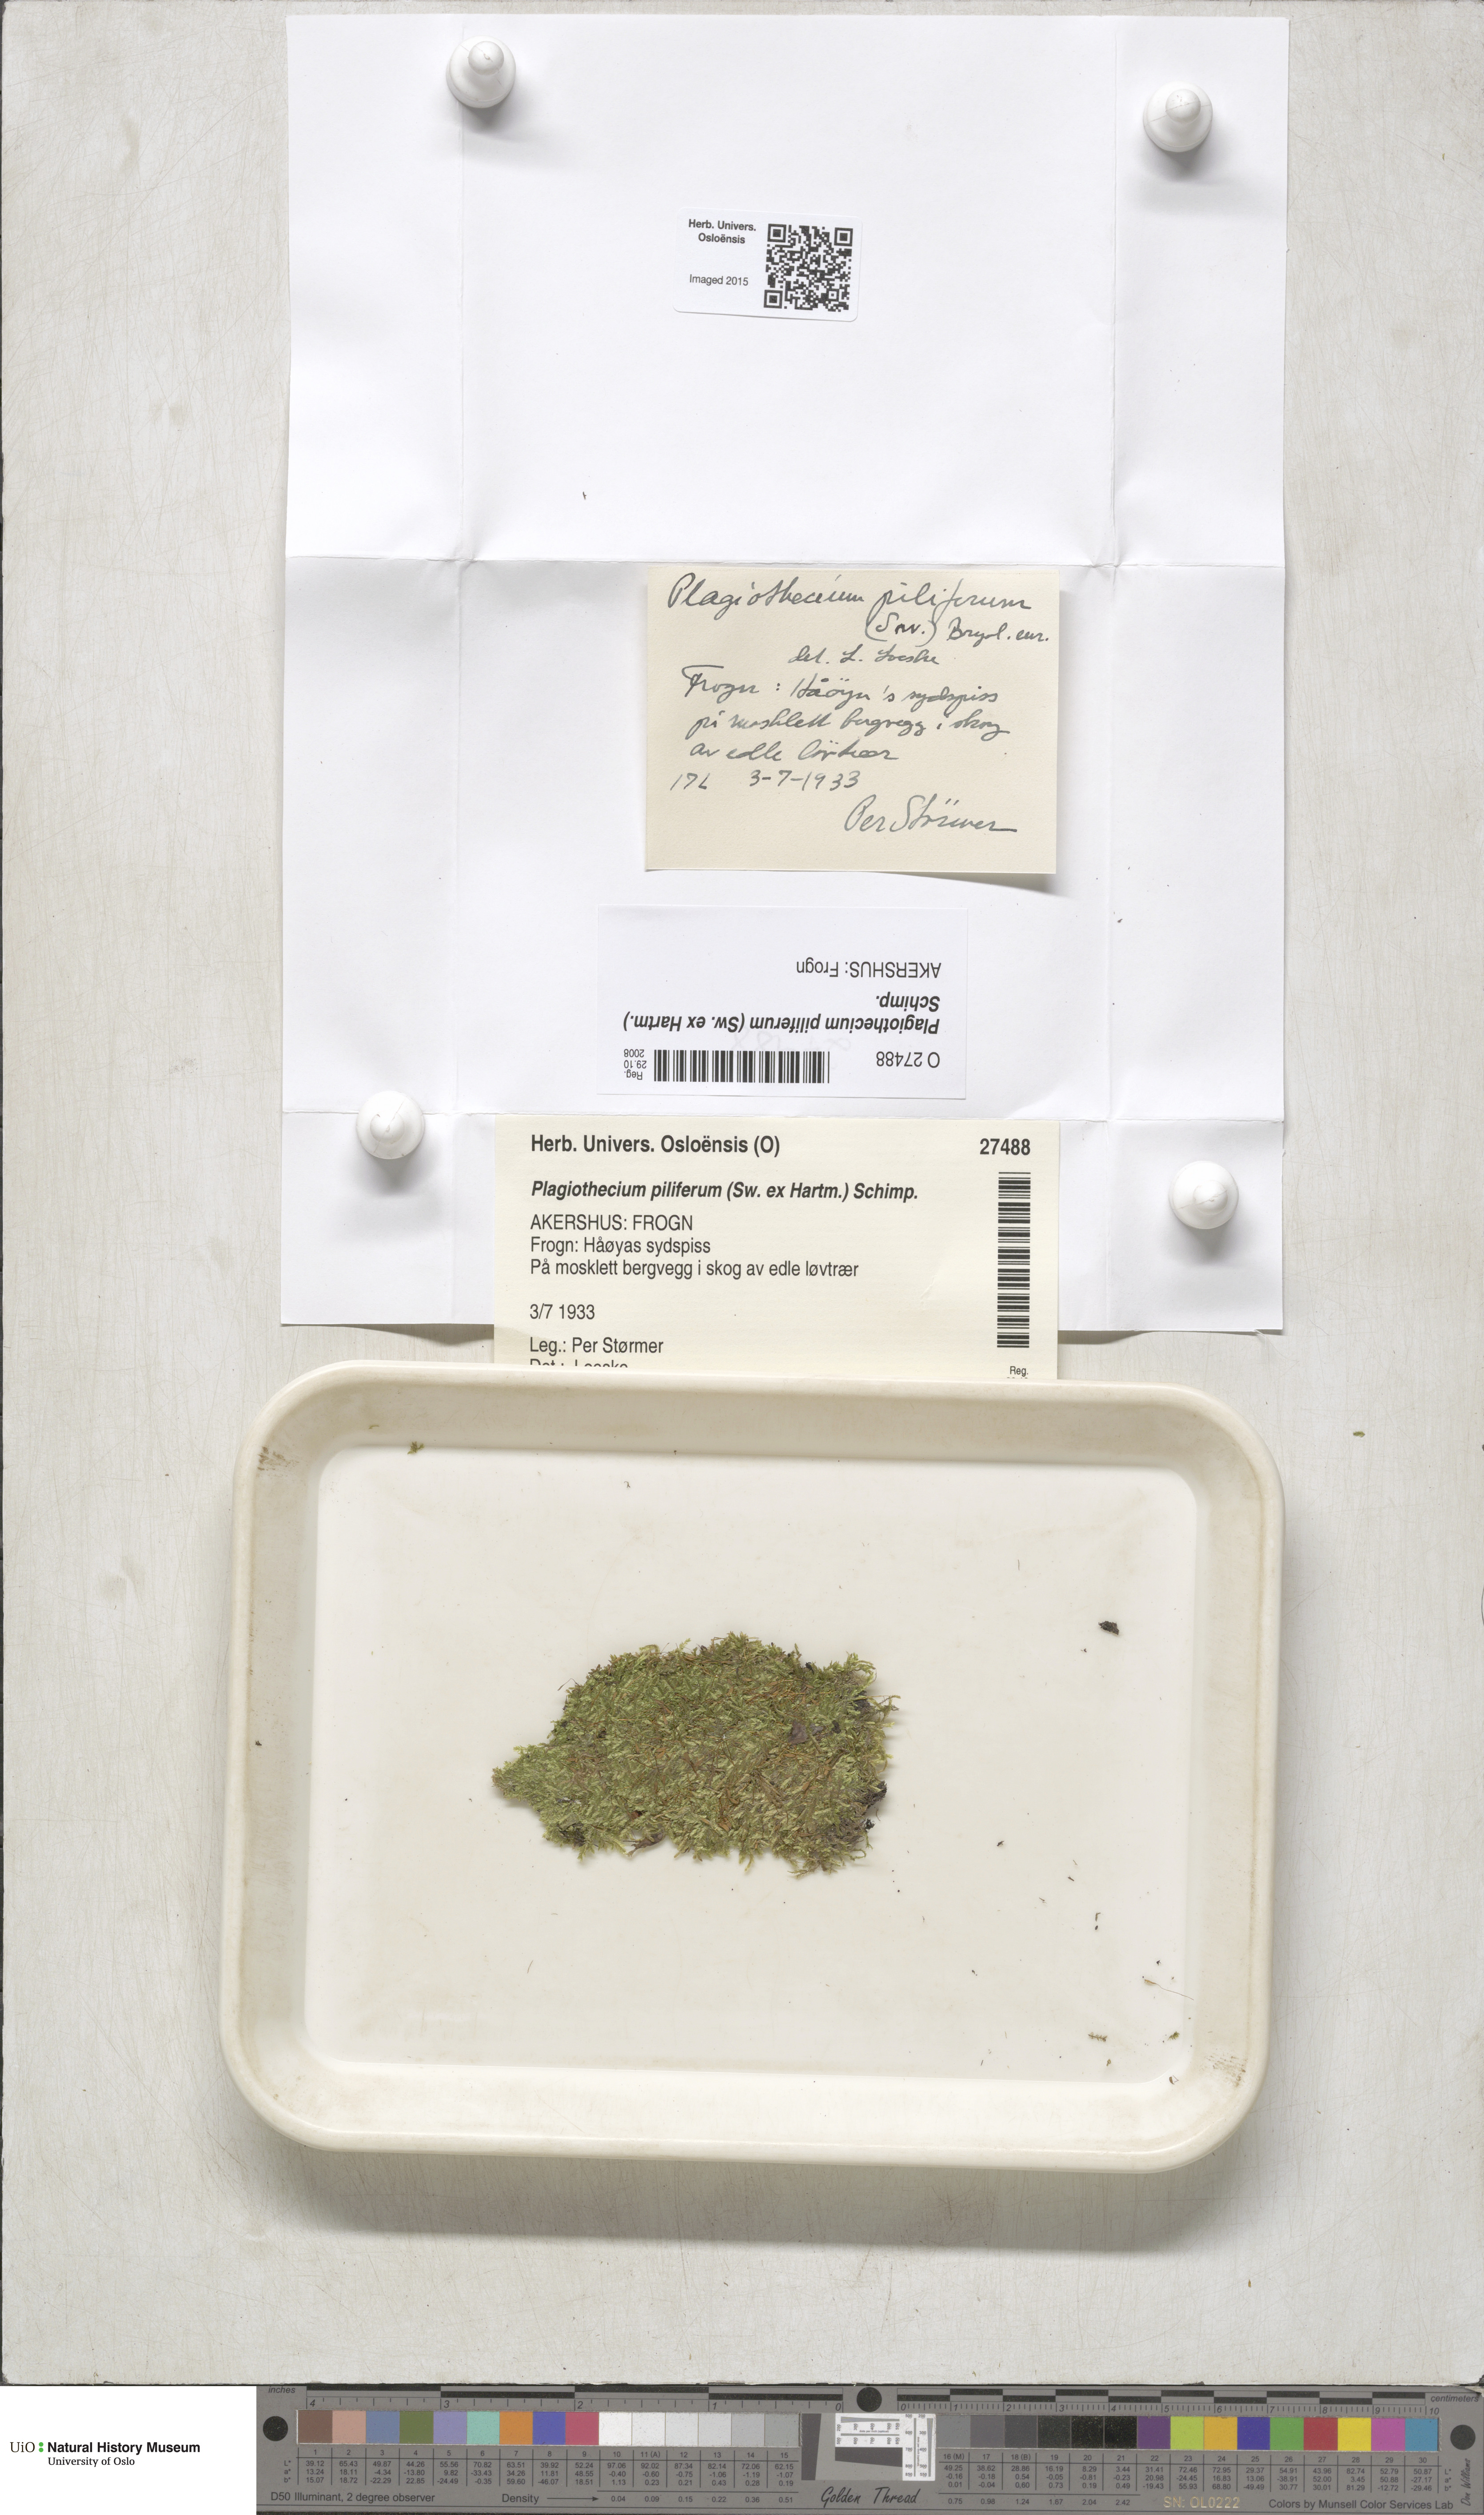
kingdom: Plantae
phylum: Bryophyta
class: Bryopsida
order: Hypnales
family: Plagiotheciaceae
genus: Rectithecium
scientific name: Rectithecium piliferum
